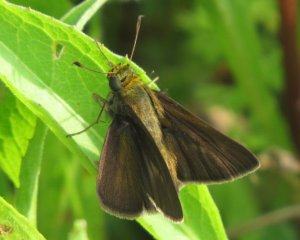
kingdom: Animalia
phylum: Arthropoda
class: Insecta
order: Lepidoptera
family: Hesperiidae
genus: Euphyes
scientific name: Euphyes vestris
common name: Dun Skipper
